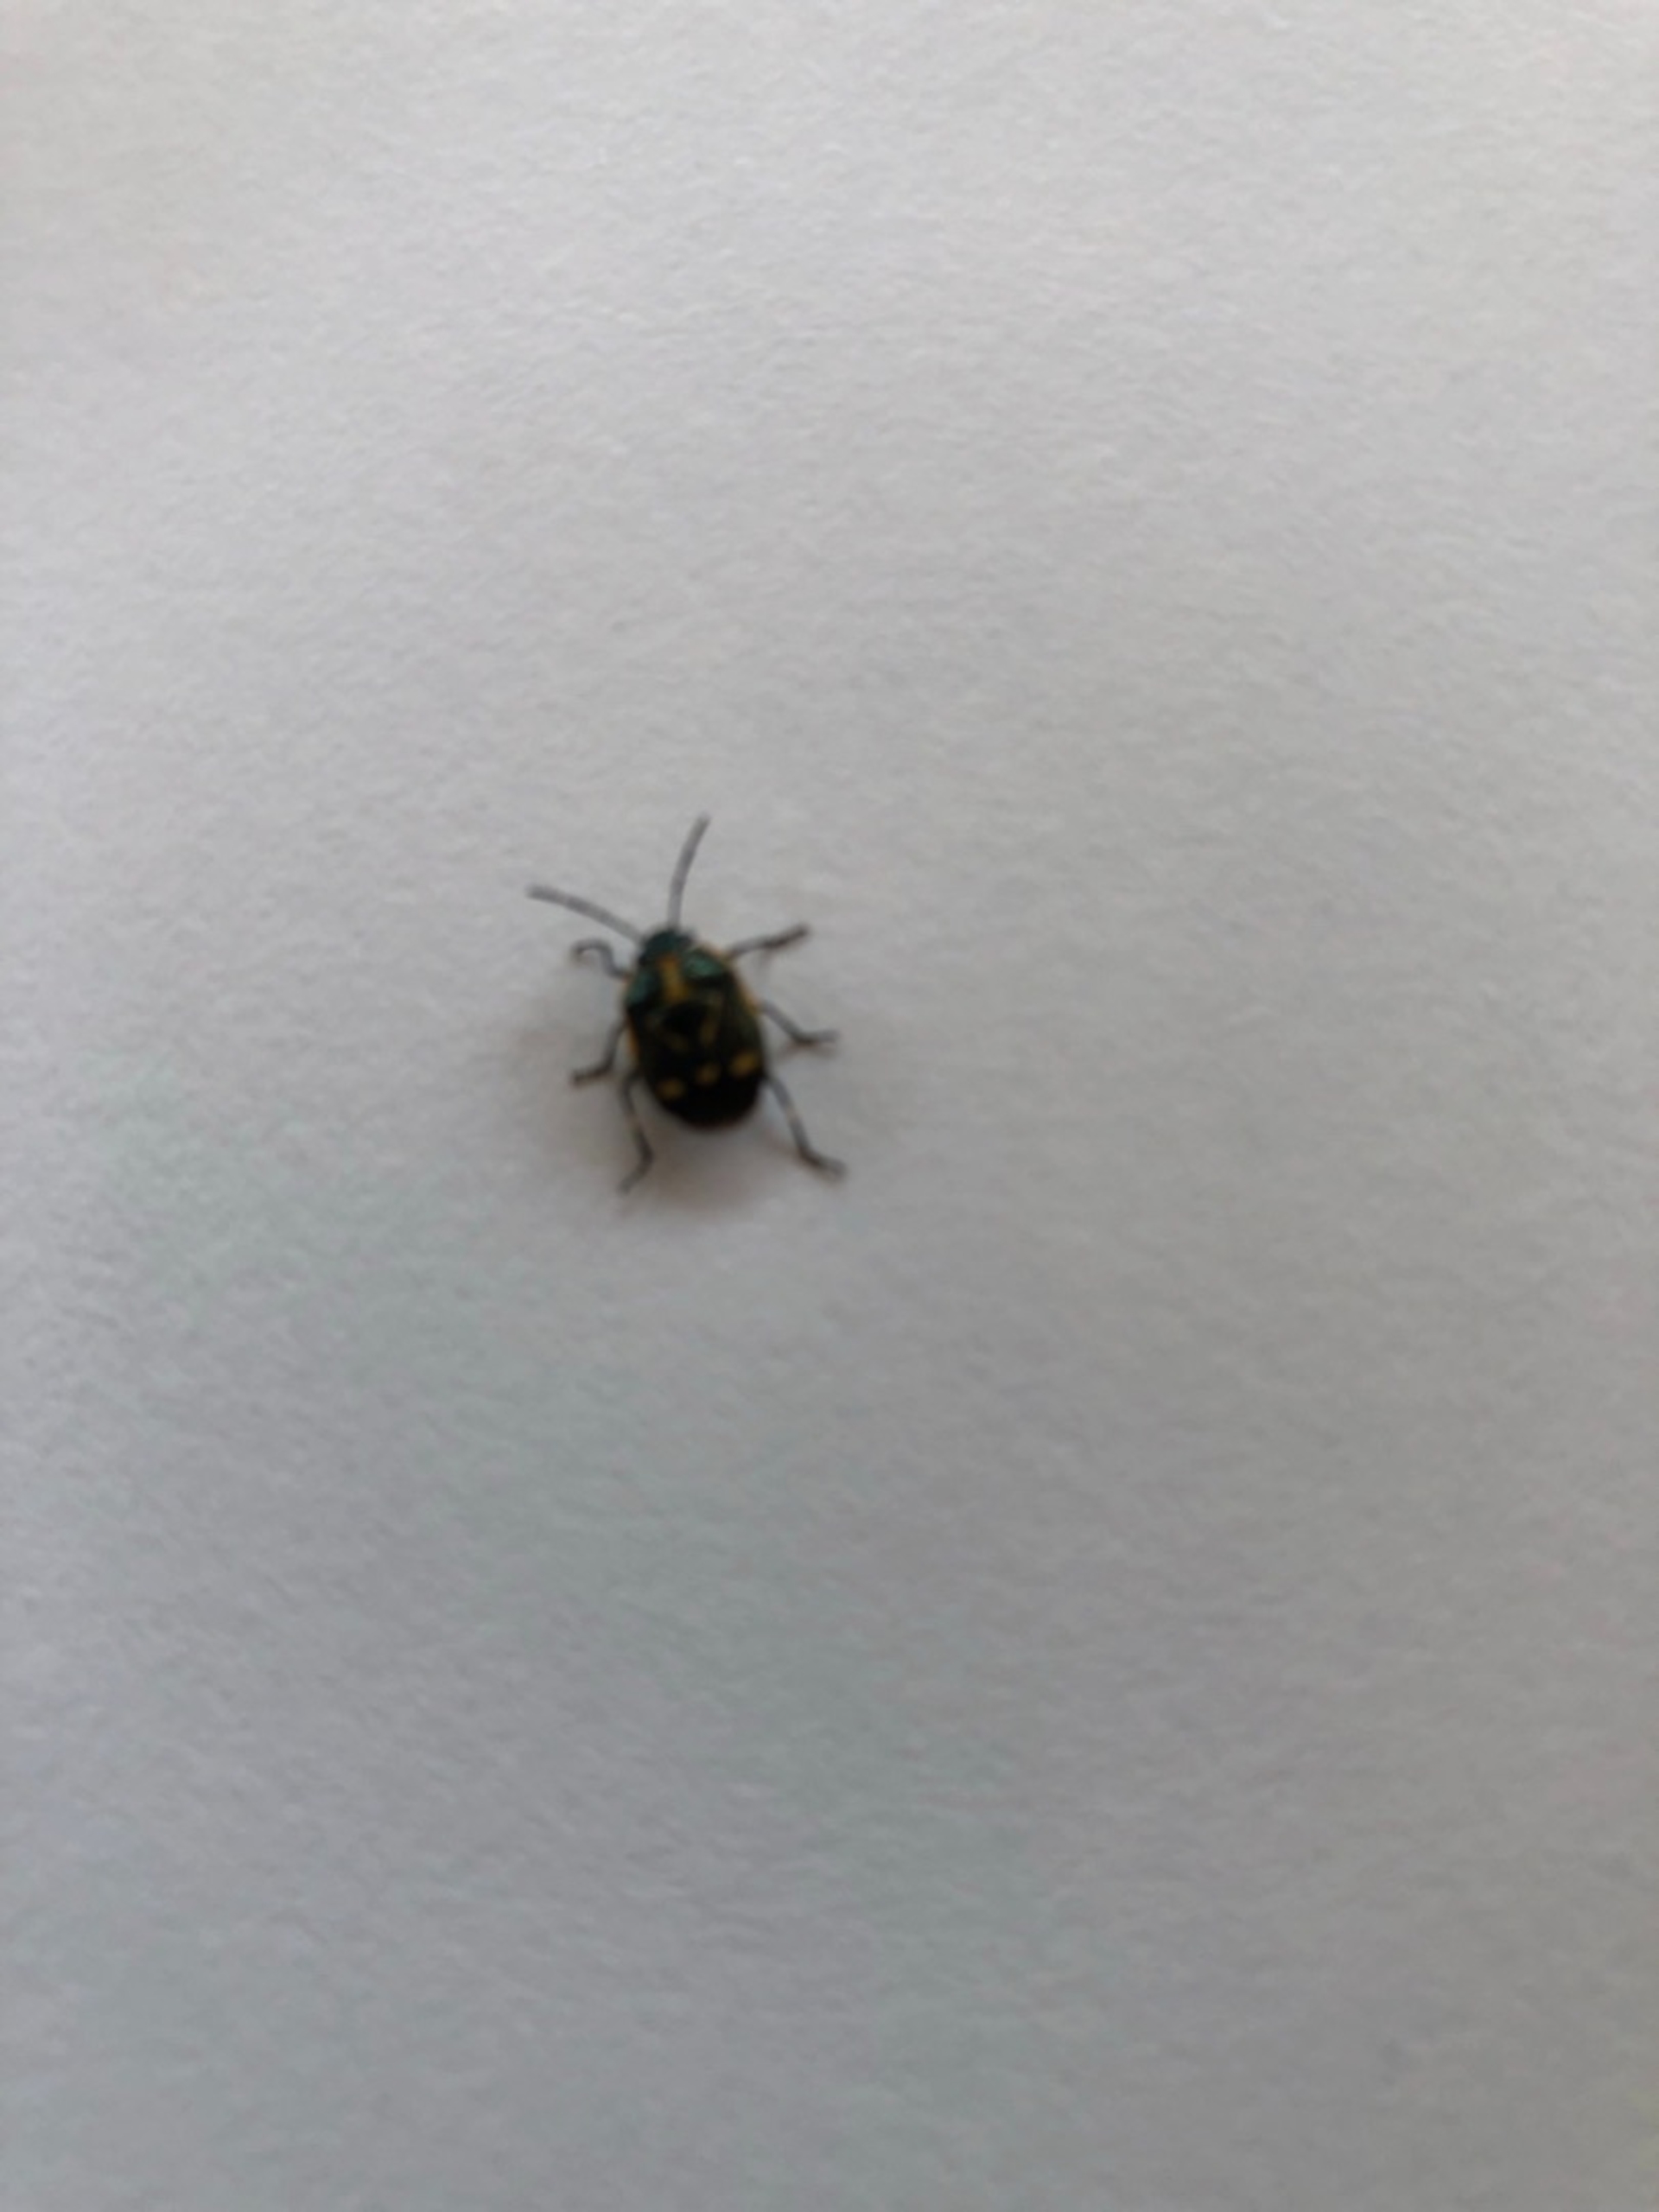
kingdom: Animalia
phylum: Arthropoda
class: Insecta
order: Hemiptera
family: Pentatomidae
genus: Eurydema
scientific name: Eurydema oleracea
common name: Almindelig kåltæge
